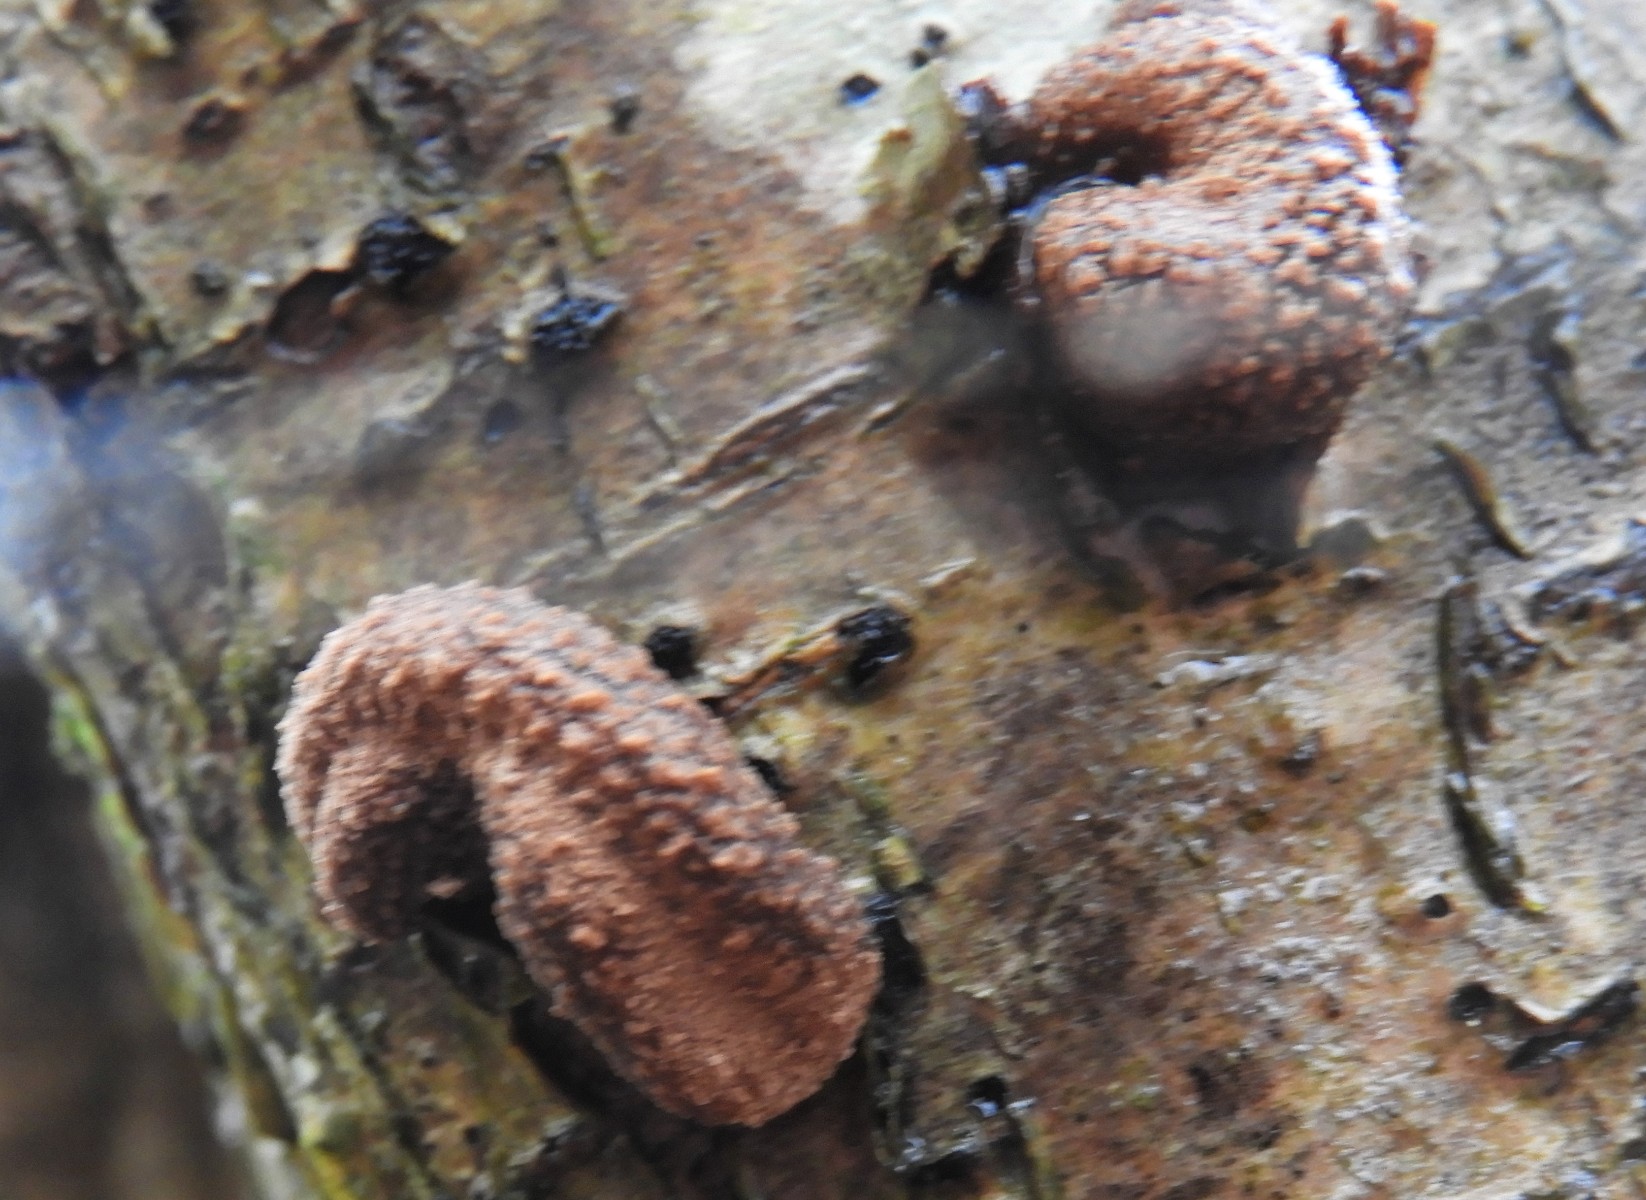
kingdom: Fungi
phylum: Ascomycota
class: Leotiomycetes
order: Helotiales
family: Cenangiaceae
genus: Encoelia
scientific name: Encoelia furfuracea
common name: hassel-læderskive
